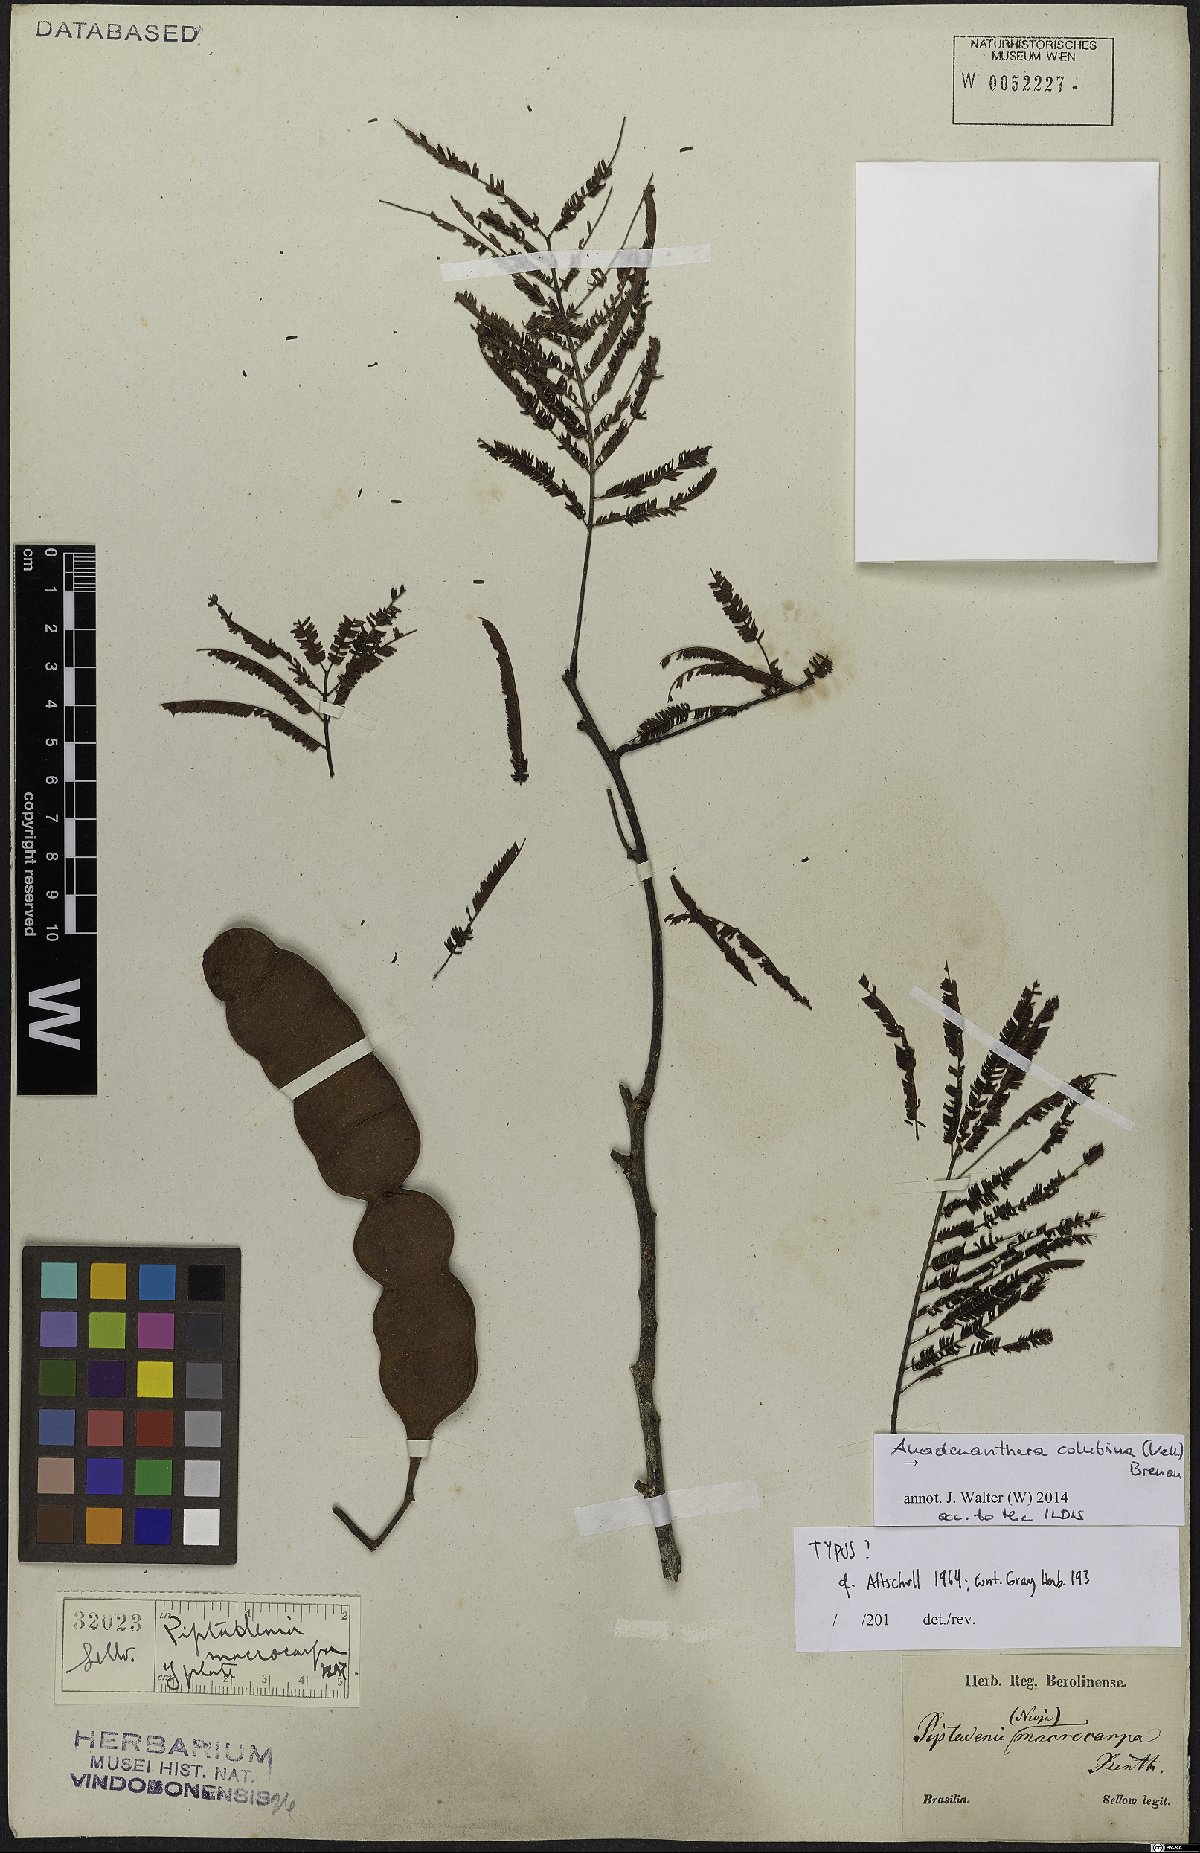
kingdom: Plantae
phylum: Tracheophyta
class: Magnoliopsida
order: Fabales
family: Fabaceae
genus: Anadenanthera
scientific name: Anadenanthera colubrina
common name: Curupay
